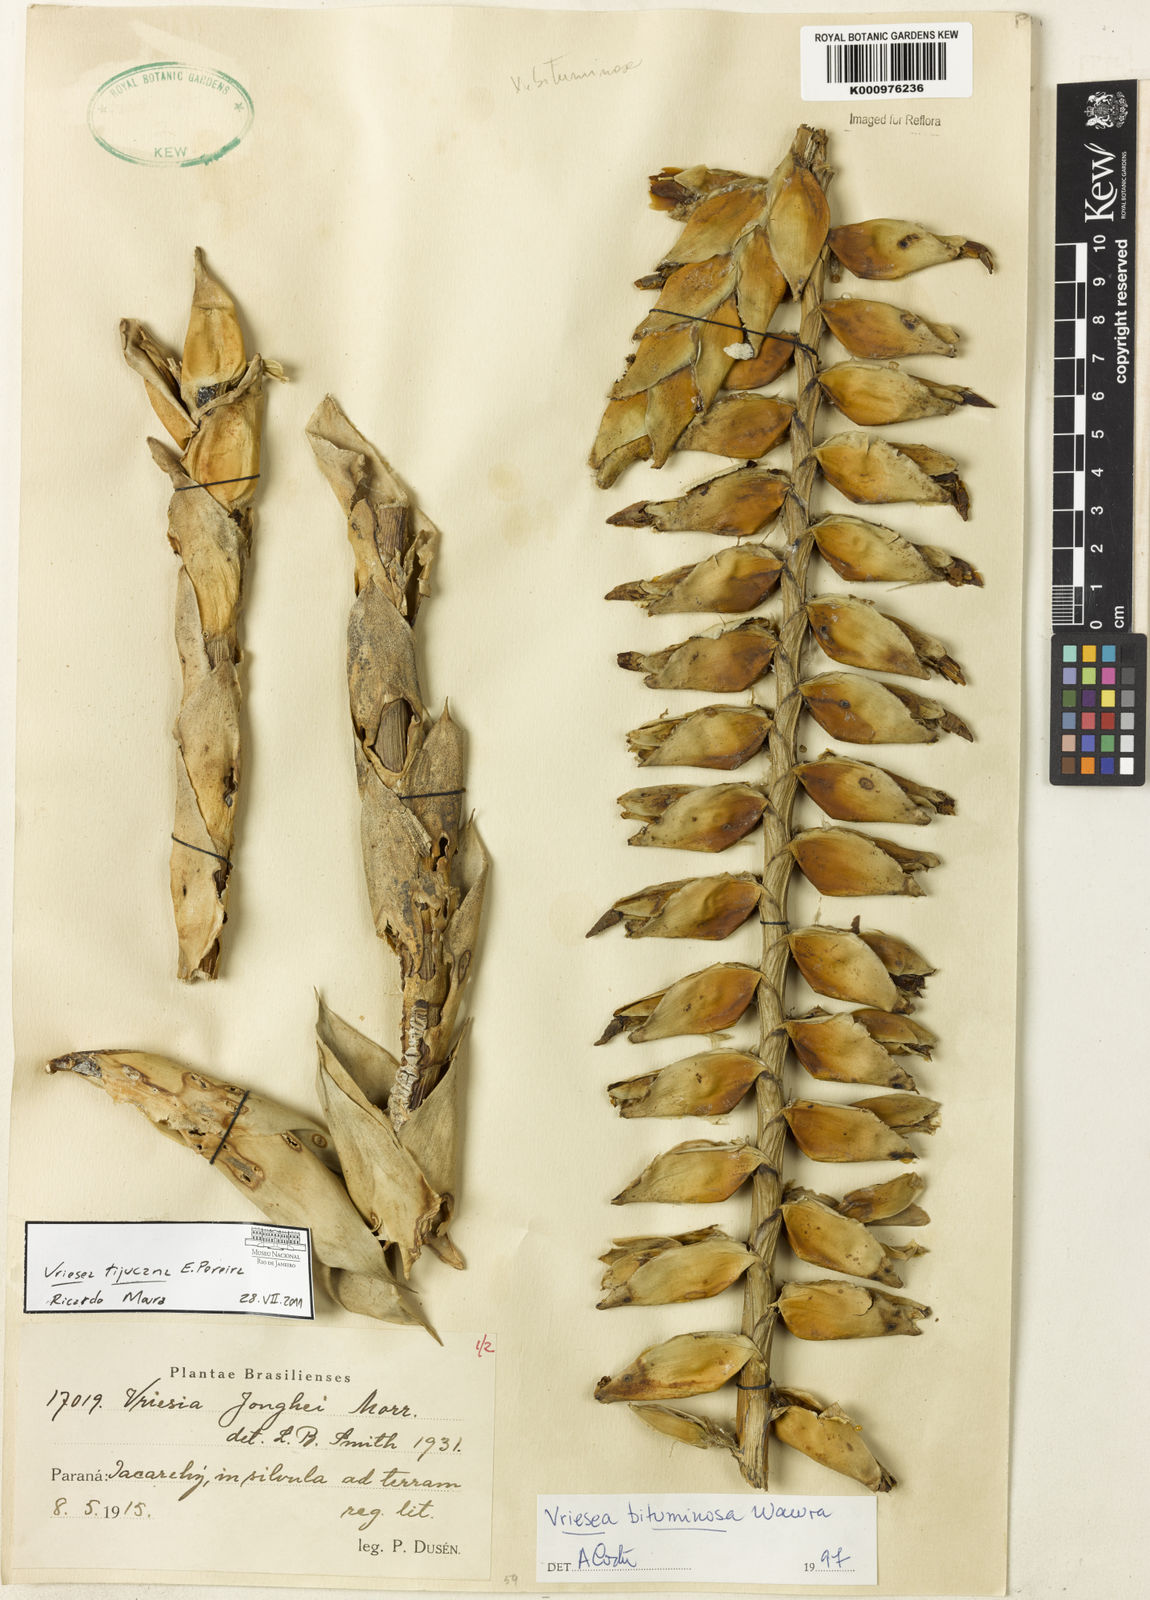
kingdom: Plantae
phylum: Tracheophyta
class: Liliopsida
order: Poales
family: Bromeliaceae
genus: Vriesea
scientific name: Vriesea tijucana
